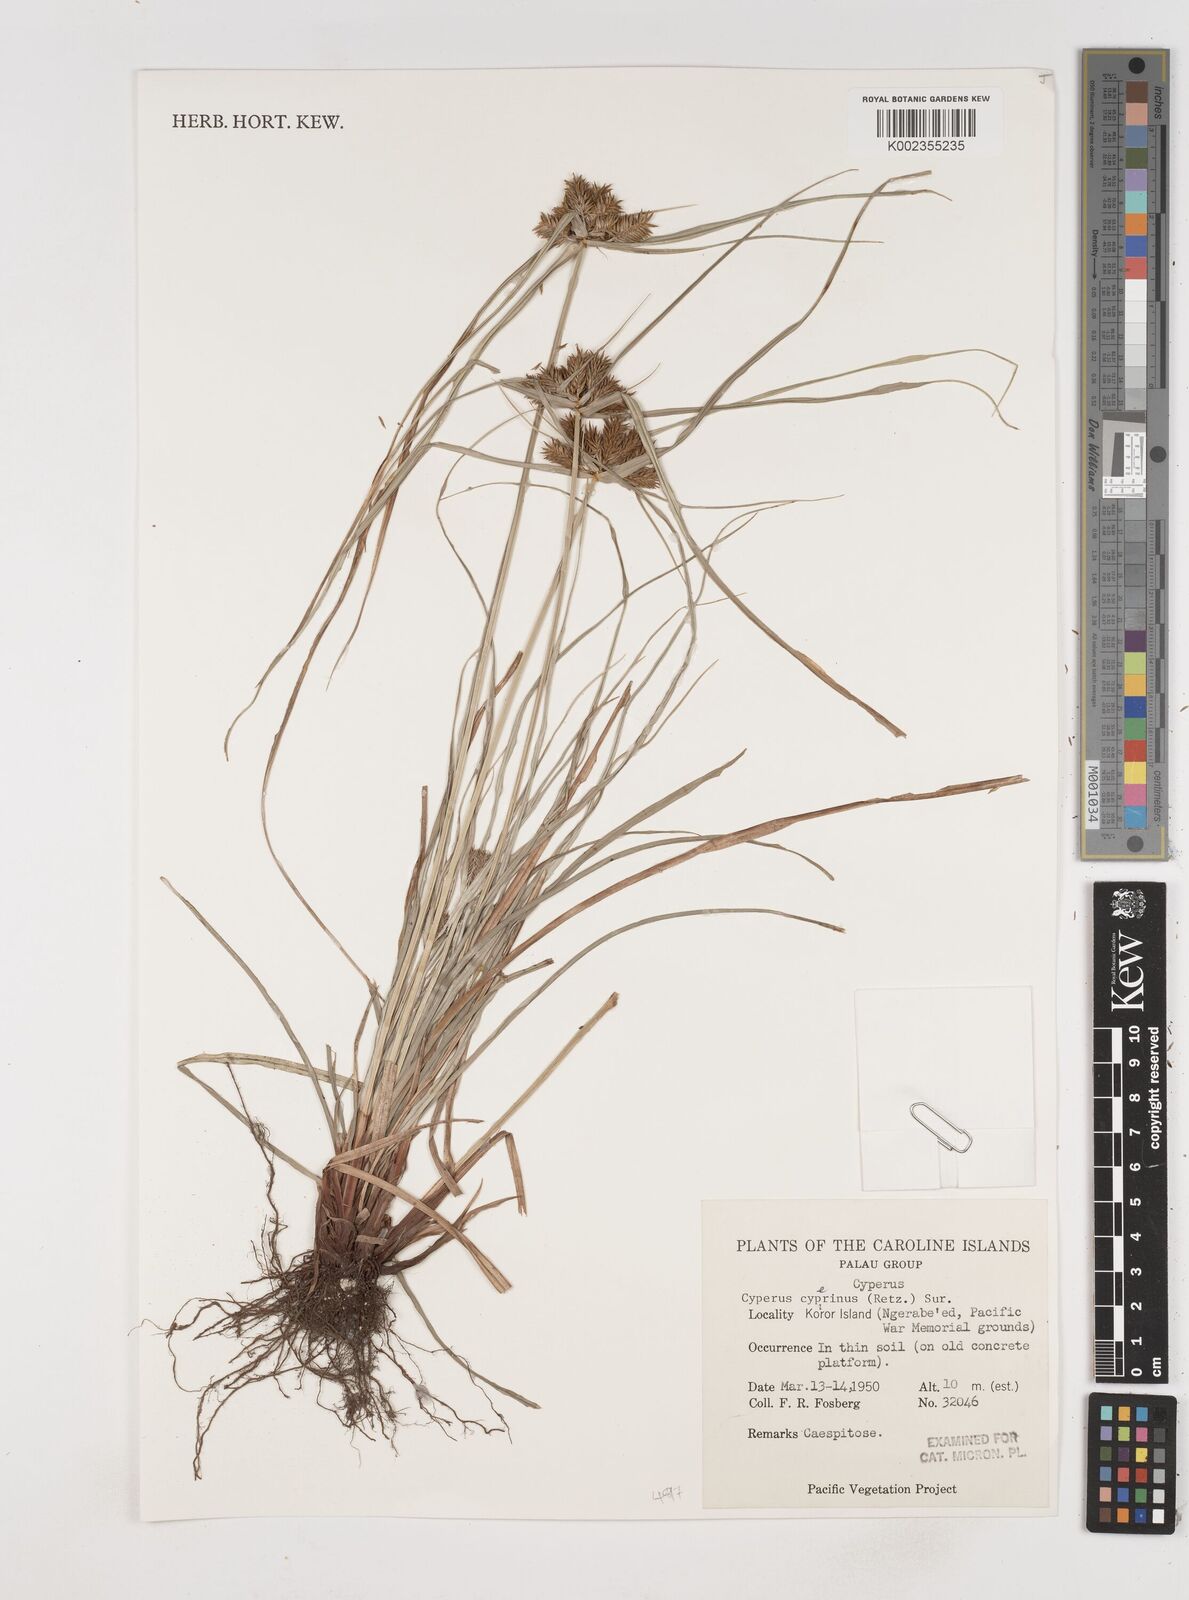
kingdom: Plantae
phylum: Tracheophyta
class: Liliopsida
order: Poales
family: Cyperaceae
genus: Cyperus
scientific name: Cyperus cyperinus
